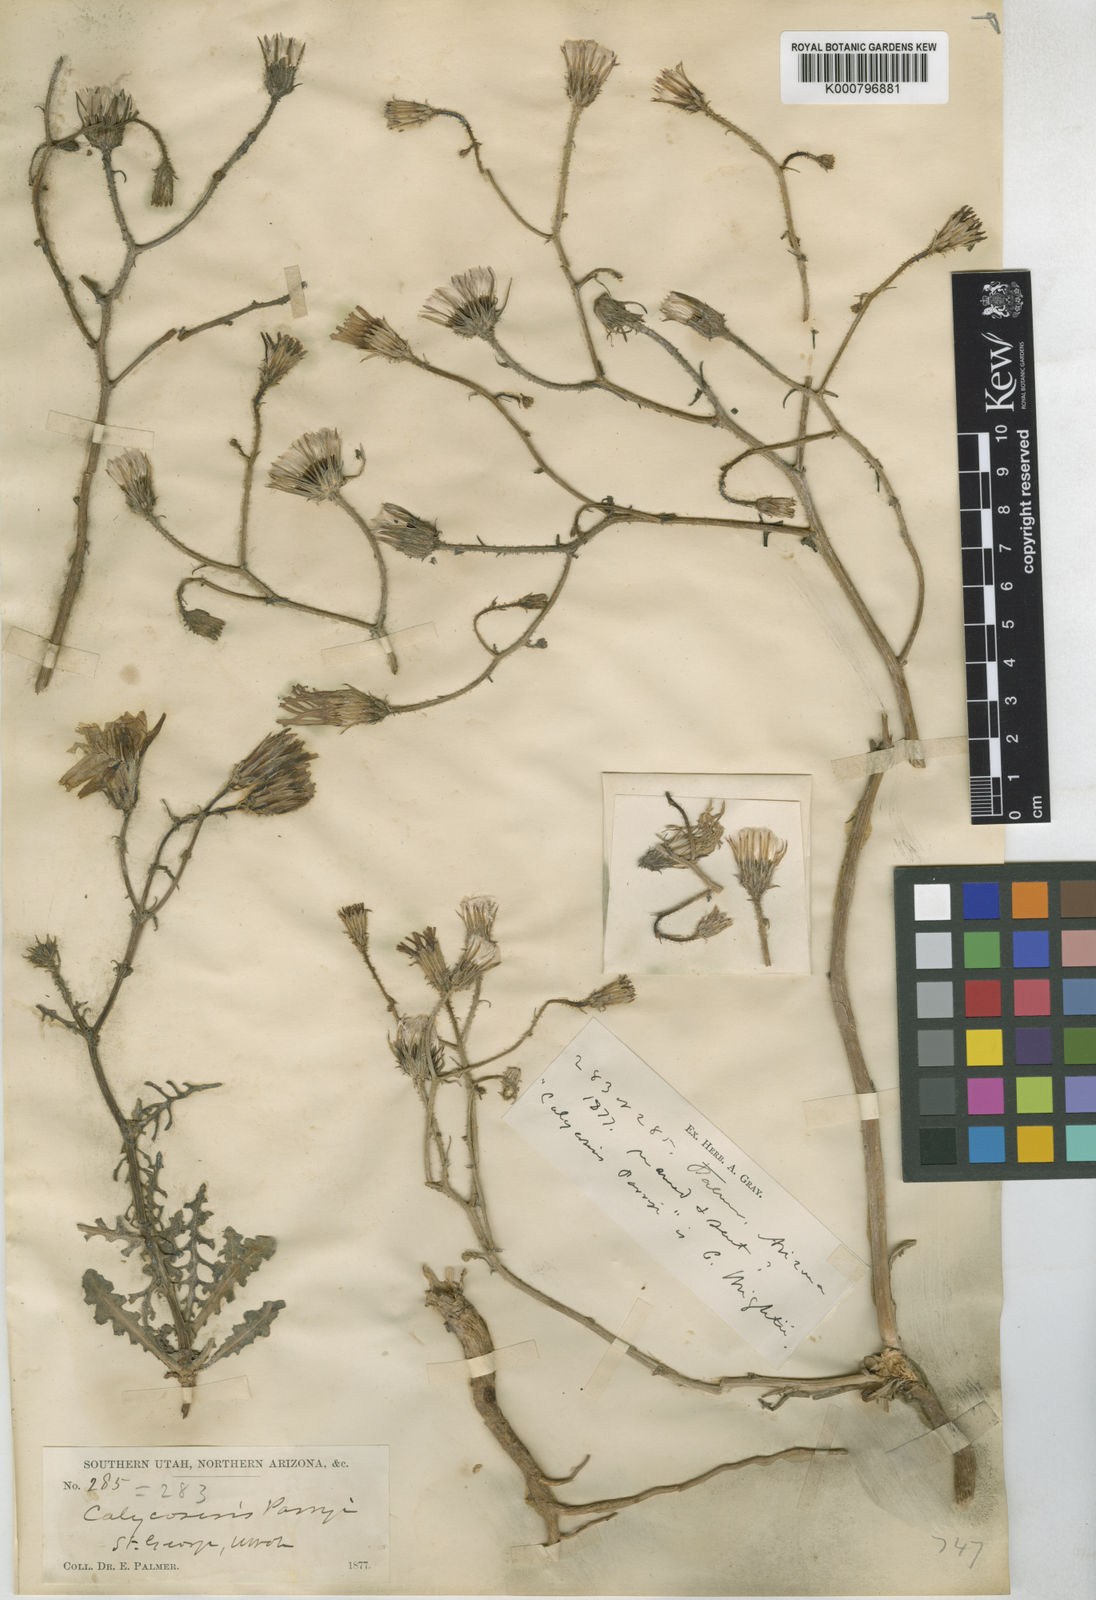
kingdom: Plantae
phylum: Tracheophyta
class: Magnoliopsida
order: Asterales
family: Asteraceae
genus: Calycoseris
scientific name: Calycoseris parryi
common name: Yellow tackstem
